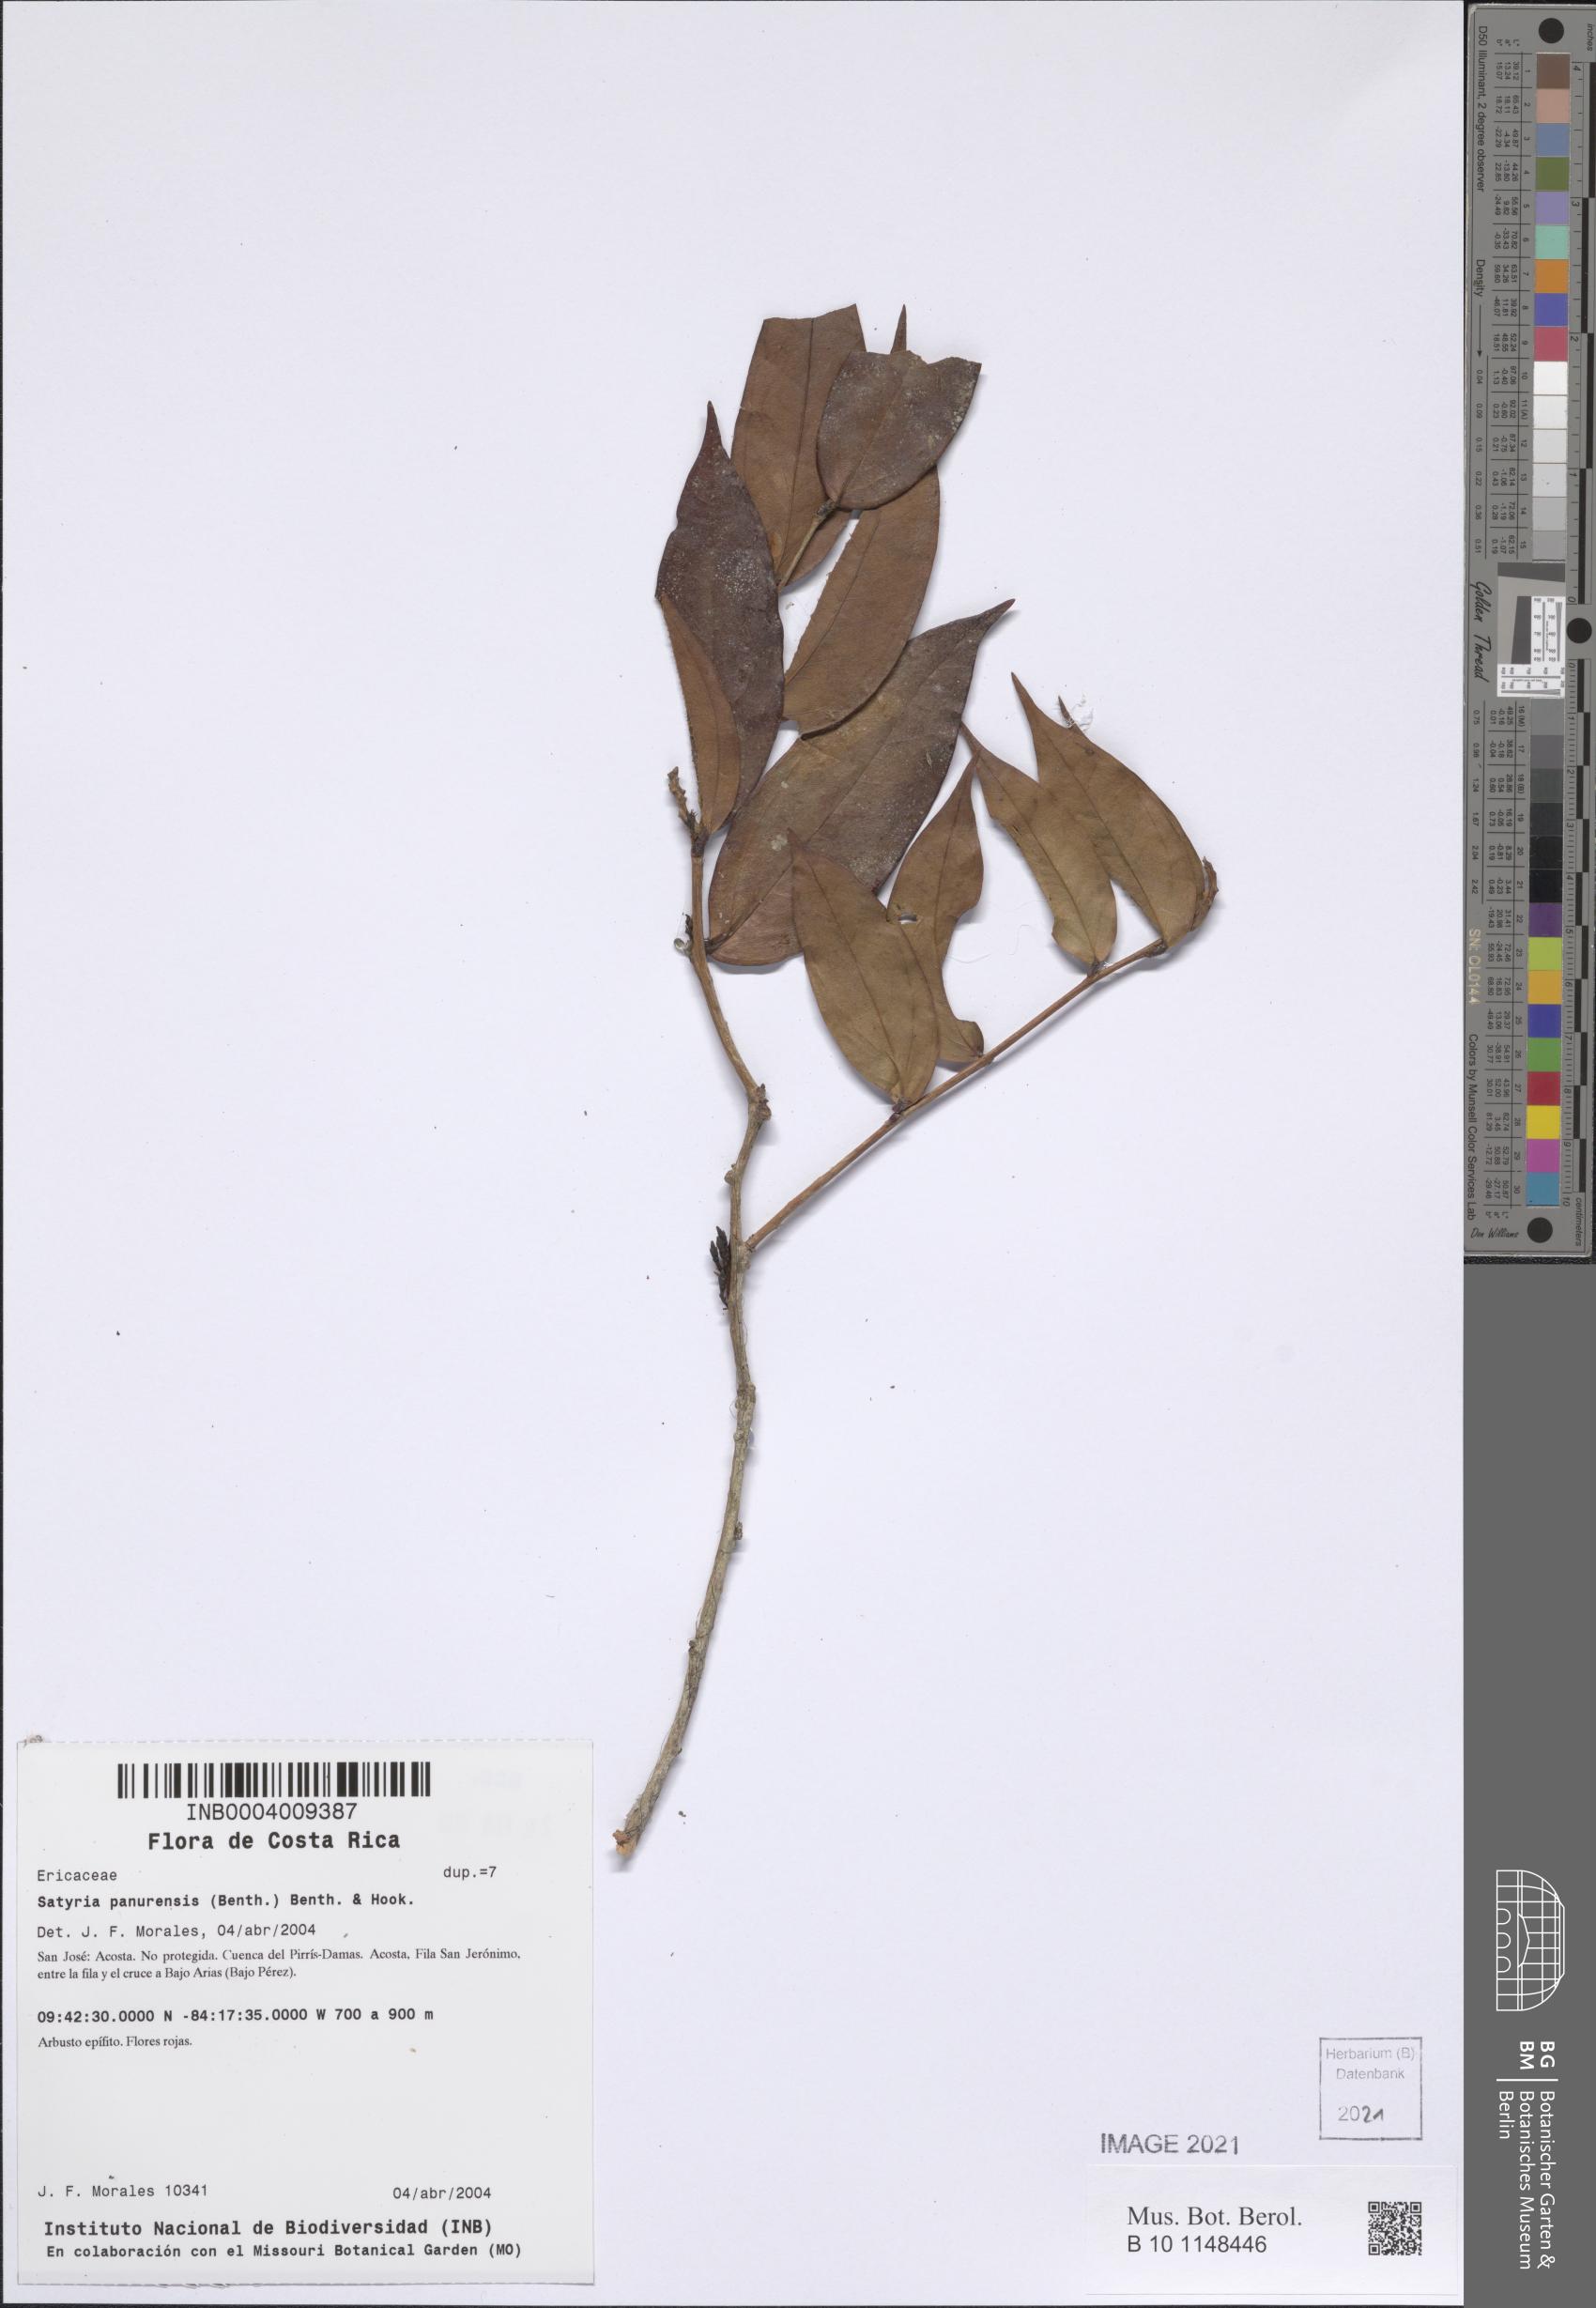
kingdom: Plantae
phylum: Tracheophyta
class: Magnoliopsida
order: Ericales
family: Ericaceae
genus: Satyria
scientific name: Satyria panurensis
